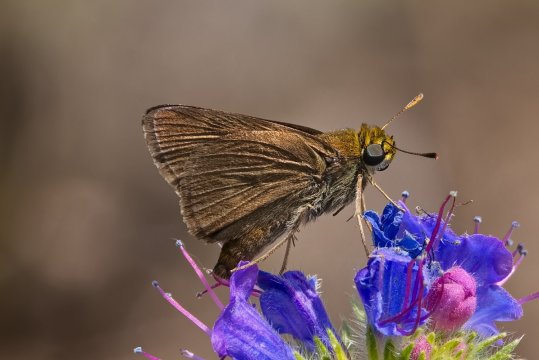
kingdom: Animalia
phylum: Arthropoda
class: Insecta
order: Lepidoptera
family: Hesperiidae
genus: Euphyes
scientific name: Euphyes vestris
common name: Dun Skipper
